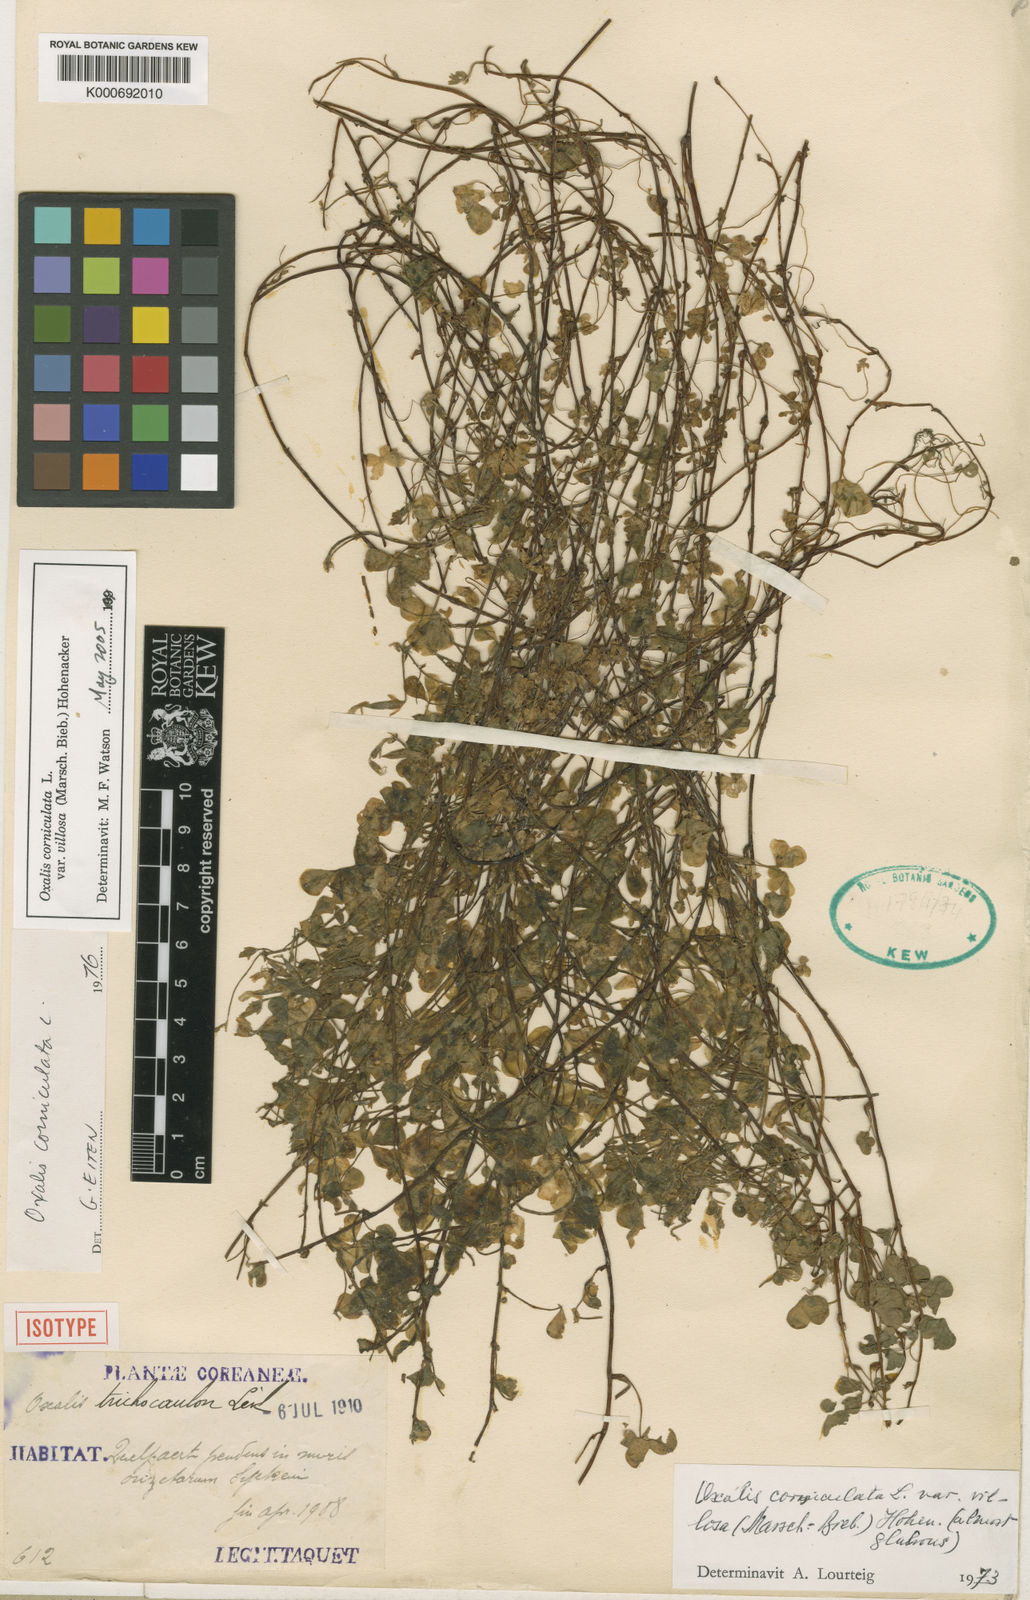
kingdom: Plantae
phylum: Tracheophyta
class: Magnoliopsida
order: Oxalidales
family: Oxalidaceae
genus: Oxalis
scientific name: Oxalis corniculata
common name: Procumbent yellow-sorrel
